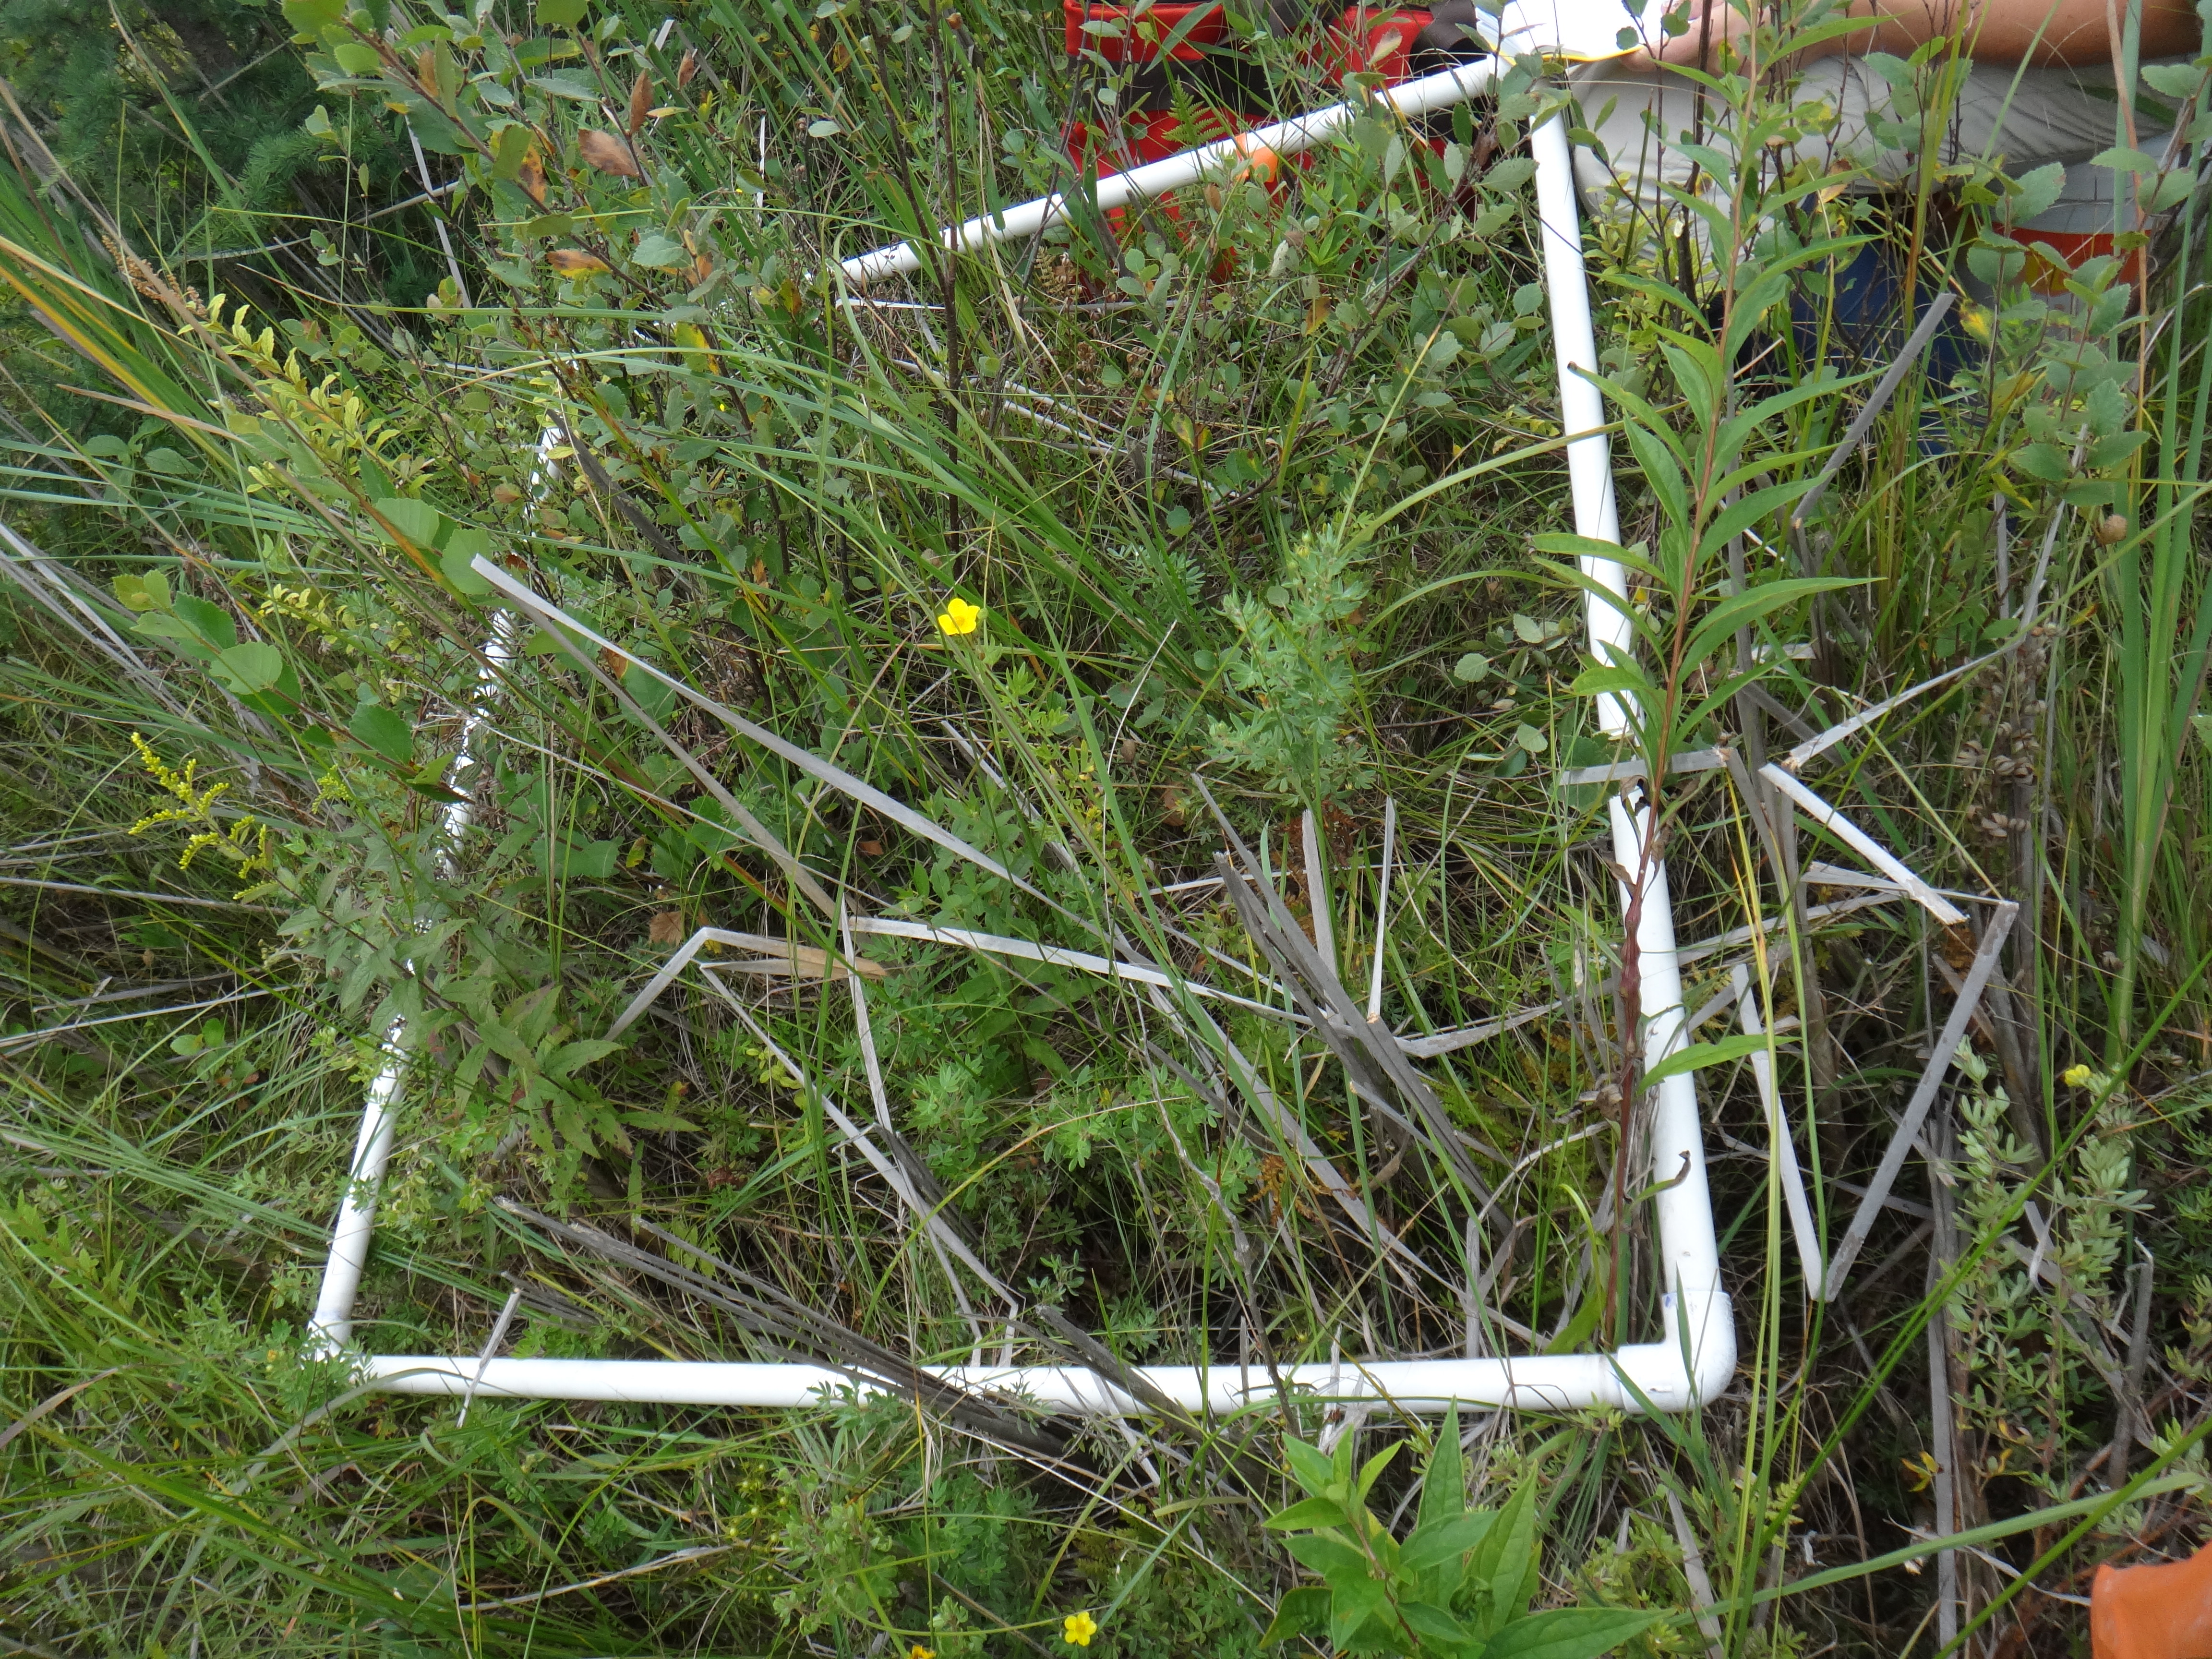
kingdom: Plantae
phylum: Tracheophyta
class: Magnoliopsida
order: Lamiales
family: Lamiaceae
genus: Lycopus
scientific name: Lycopus americanus
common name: American bugleweed
